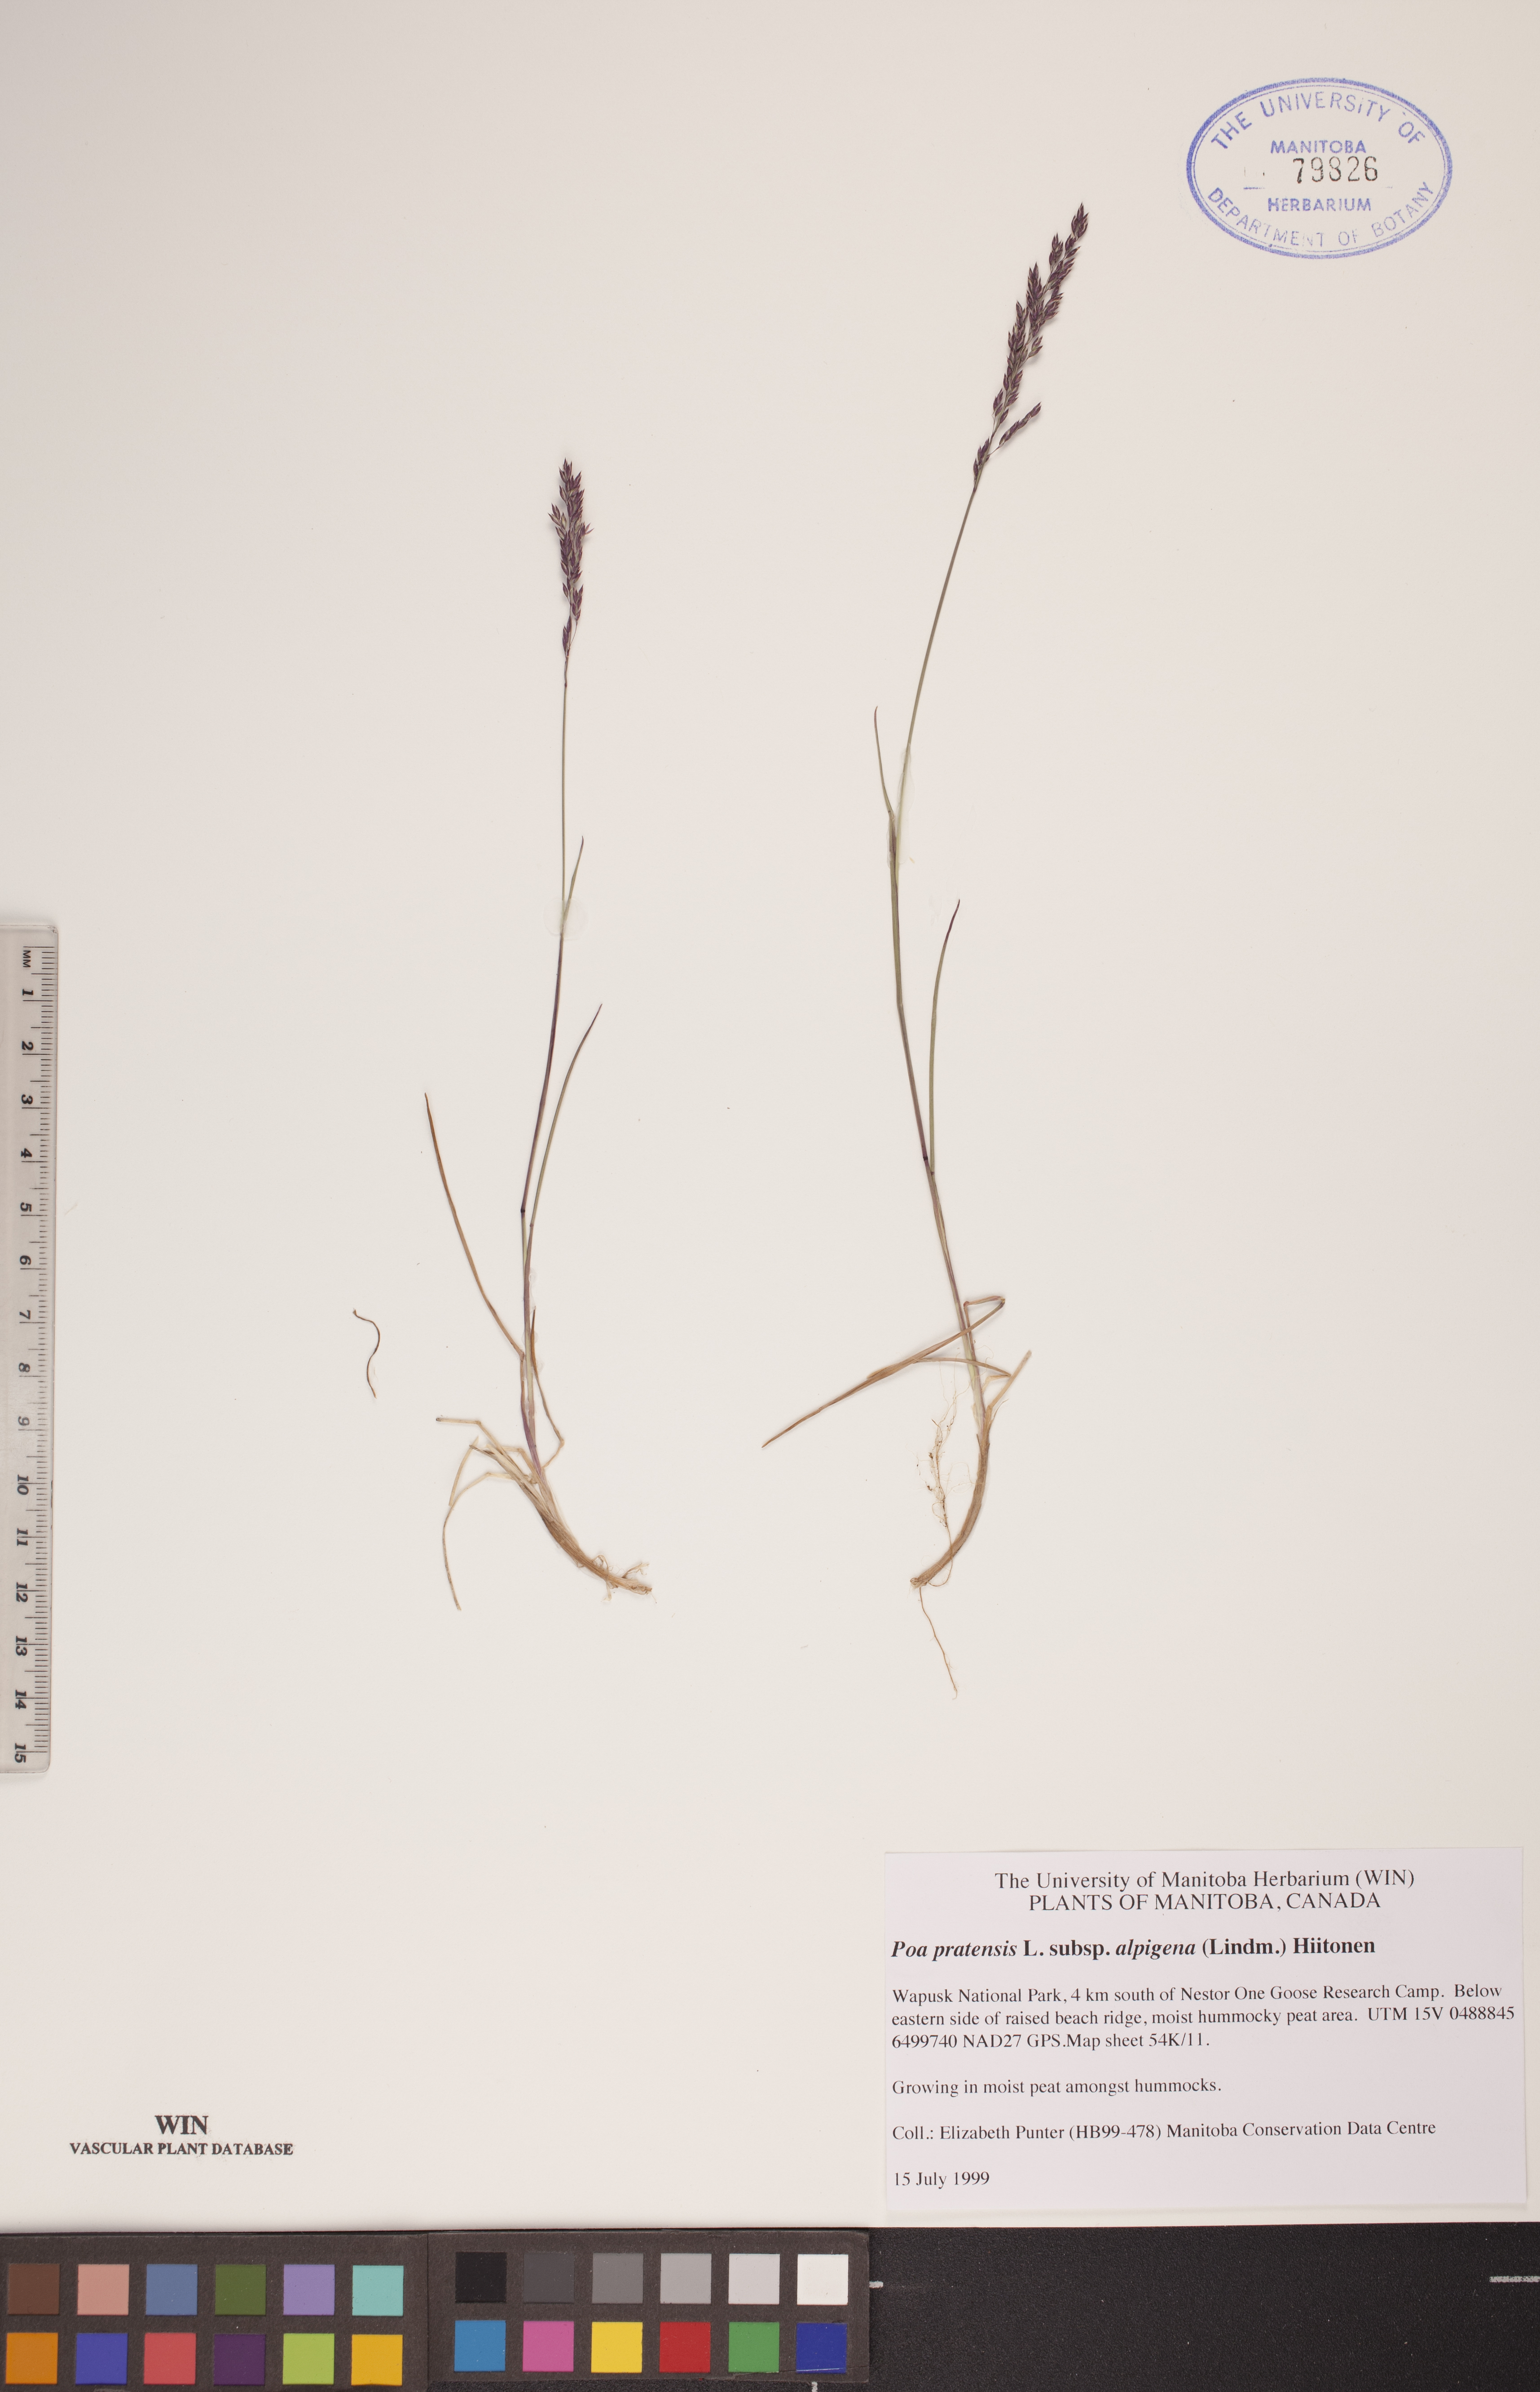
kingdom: Plantae
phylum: Tracheophyta
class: Liliopsida
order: Poales
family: Poaceae
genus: Poa
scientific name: Poa alpigena
